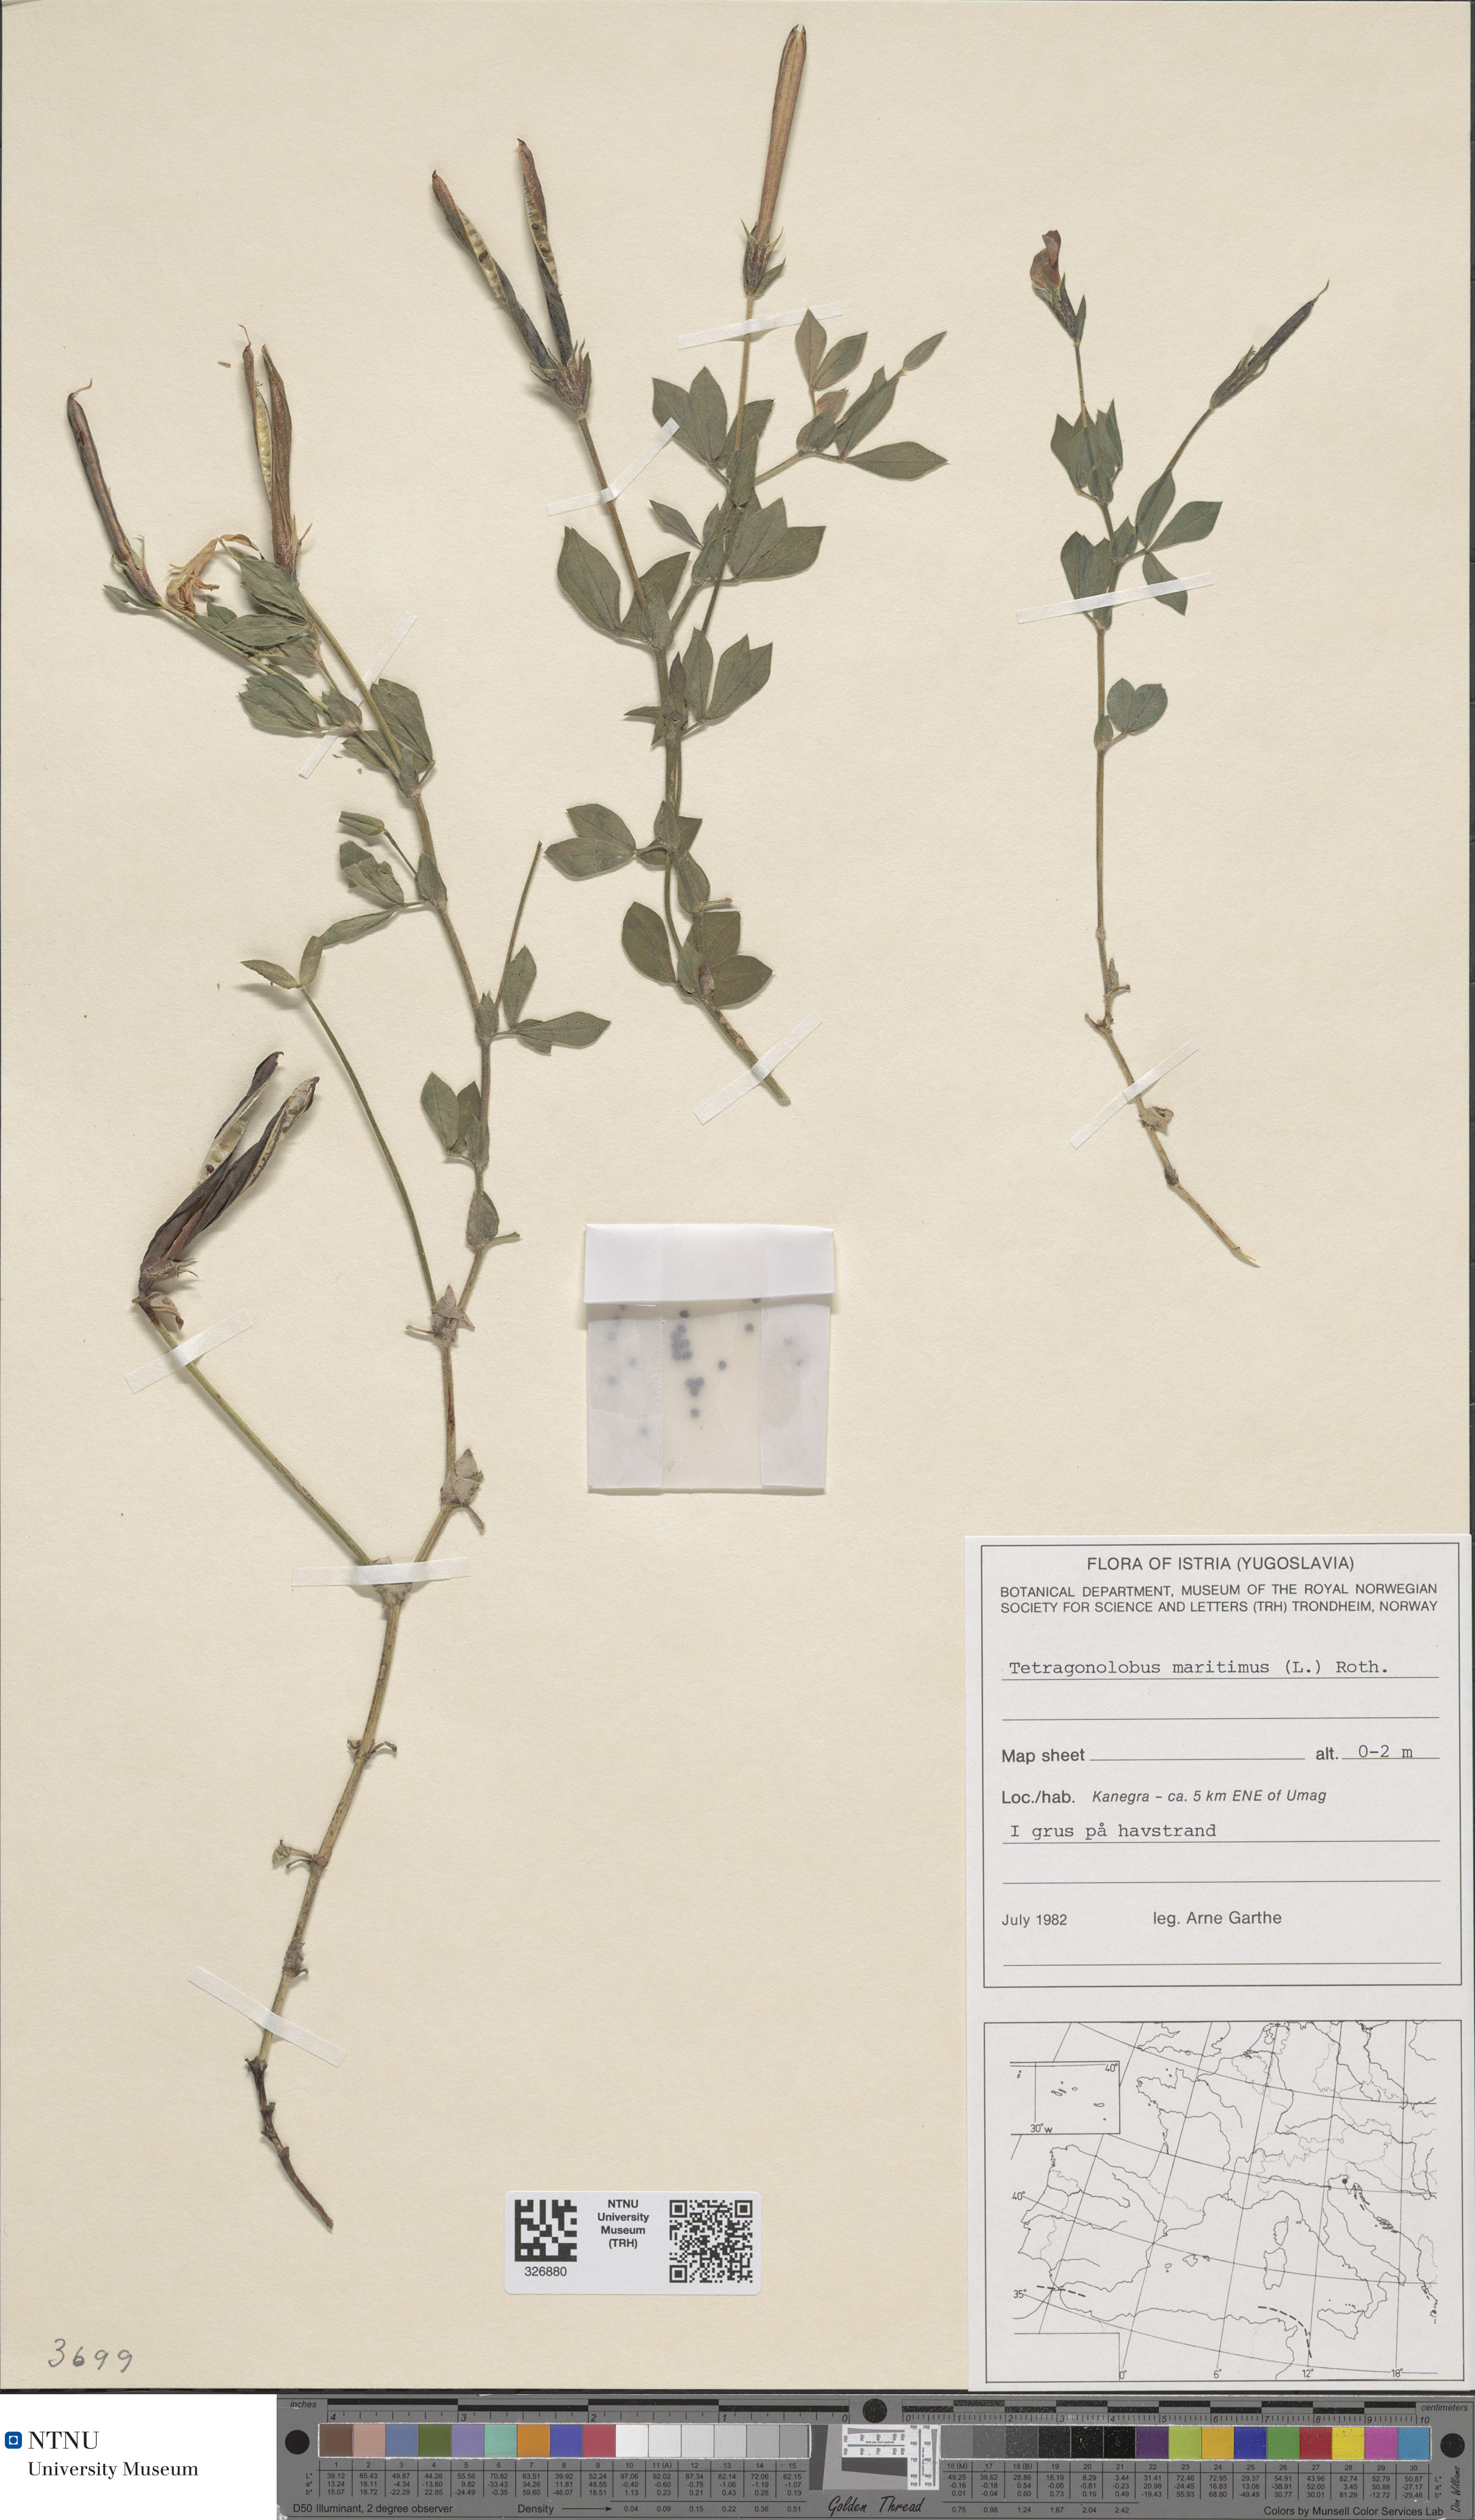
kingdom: Plantae
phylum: Tracheophyta
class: Magnoliopsida
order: Fabales
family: Fabaceae
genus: Lotus
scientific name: Lotus maritimus
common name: Dragon's-teeth
